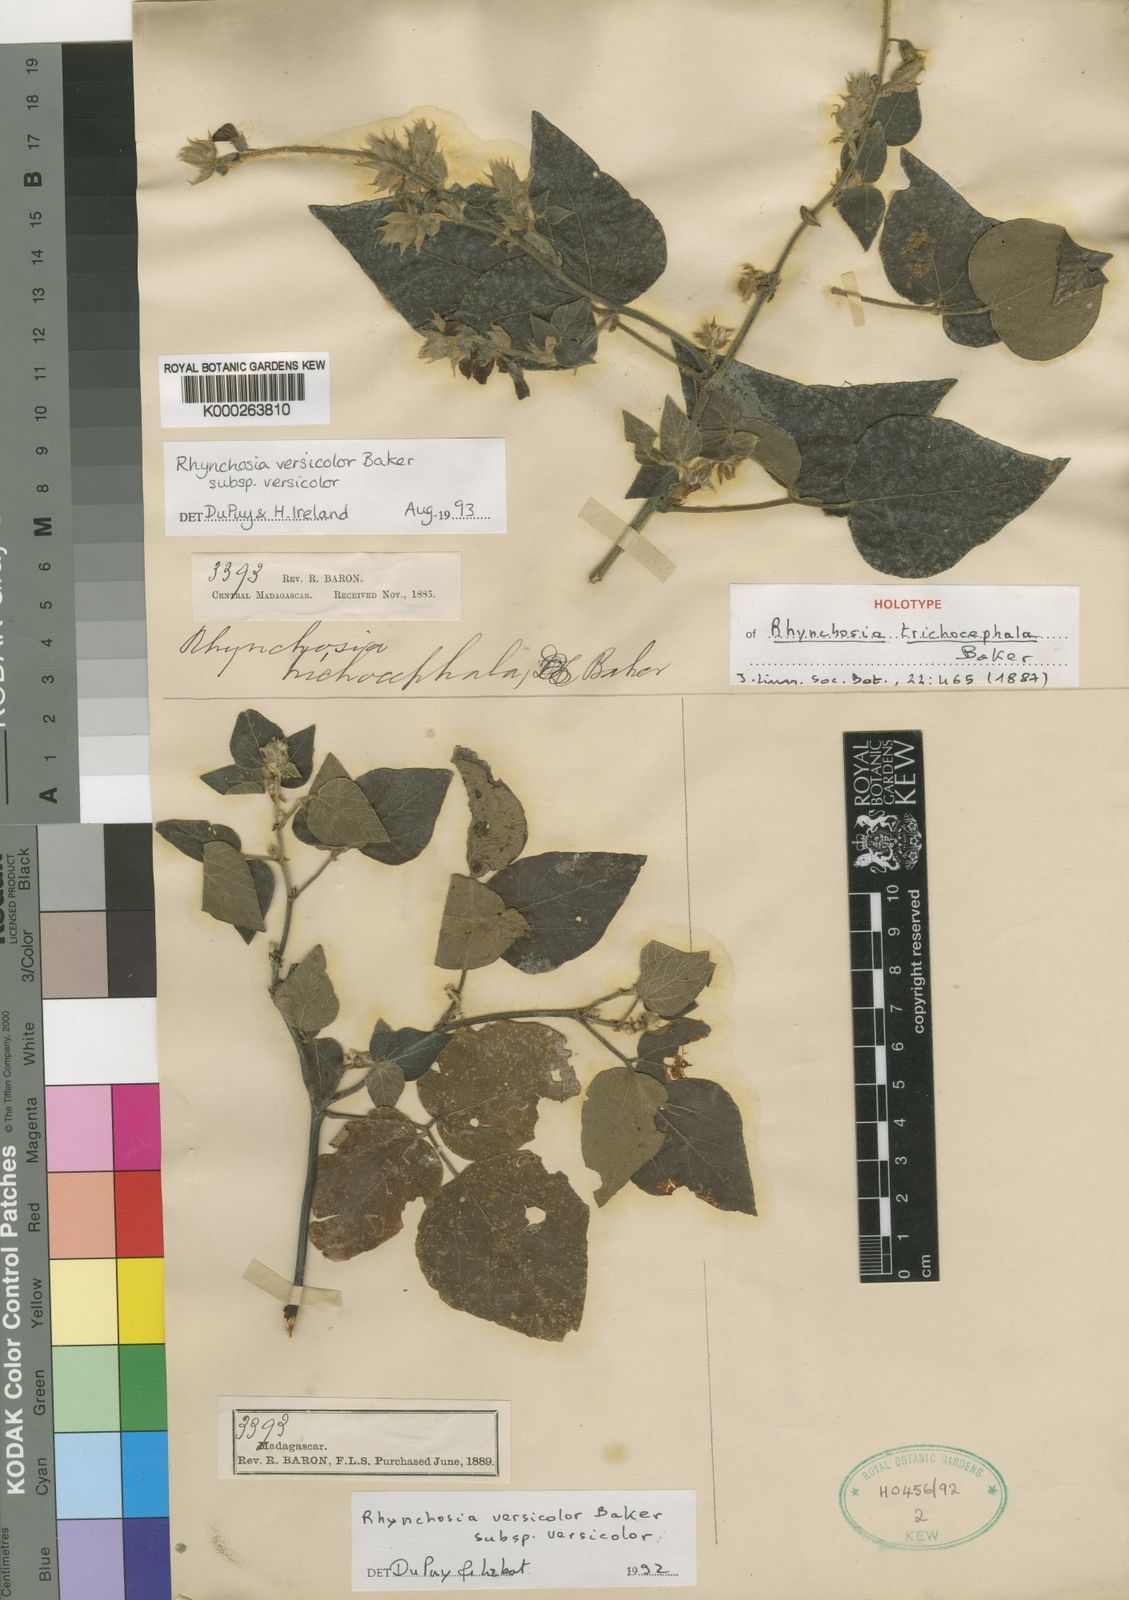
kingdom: Plantae
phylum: Tracheophyta
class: Magnoliopsida
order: Fabales
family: Fabaceae
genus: Rhynchosia
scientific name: Rhynchosia versicolor
